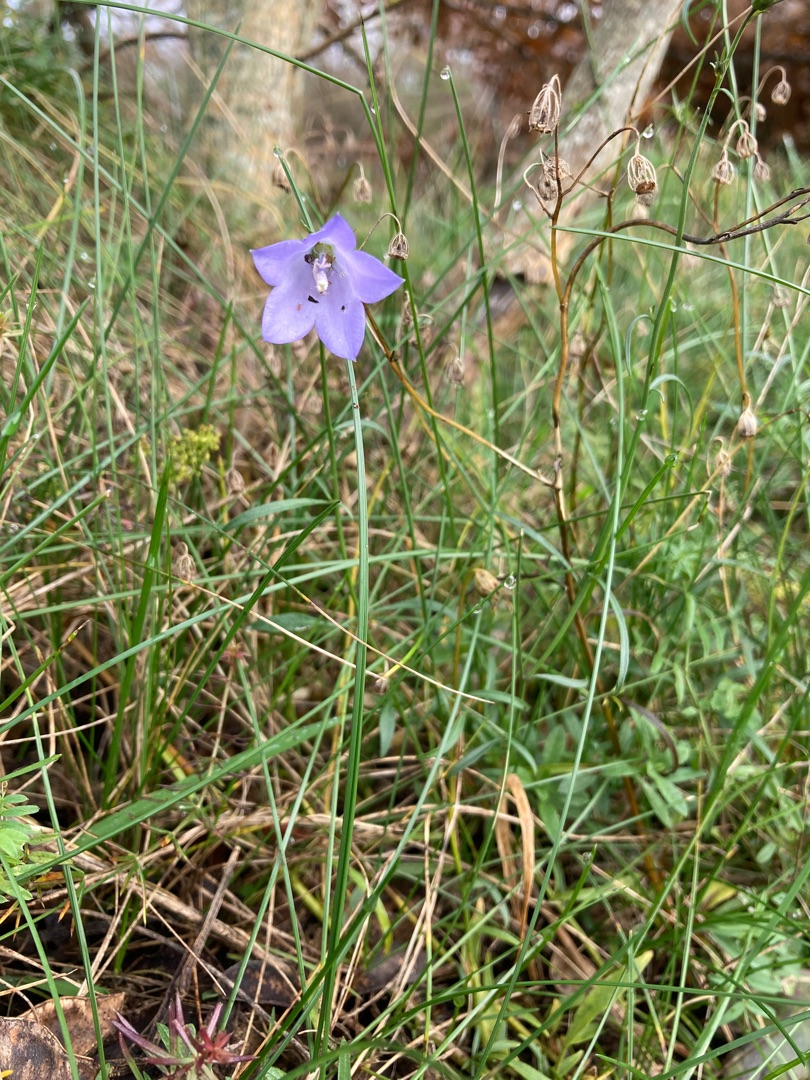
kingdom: Plantae
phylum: Tracheophyta
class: Magnoliopsida
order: Asterales
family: Campanulaceae
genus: Campanula
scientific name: Campanula rotundifolia
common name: Liden klokke
